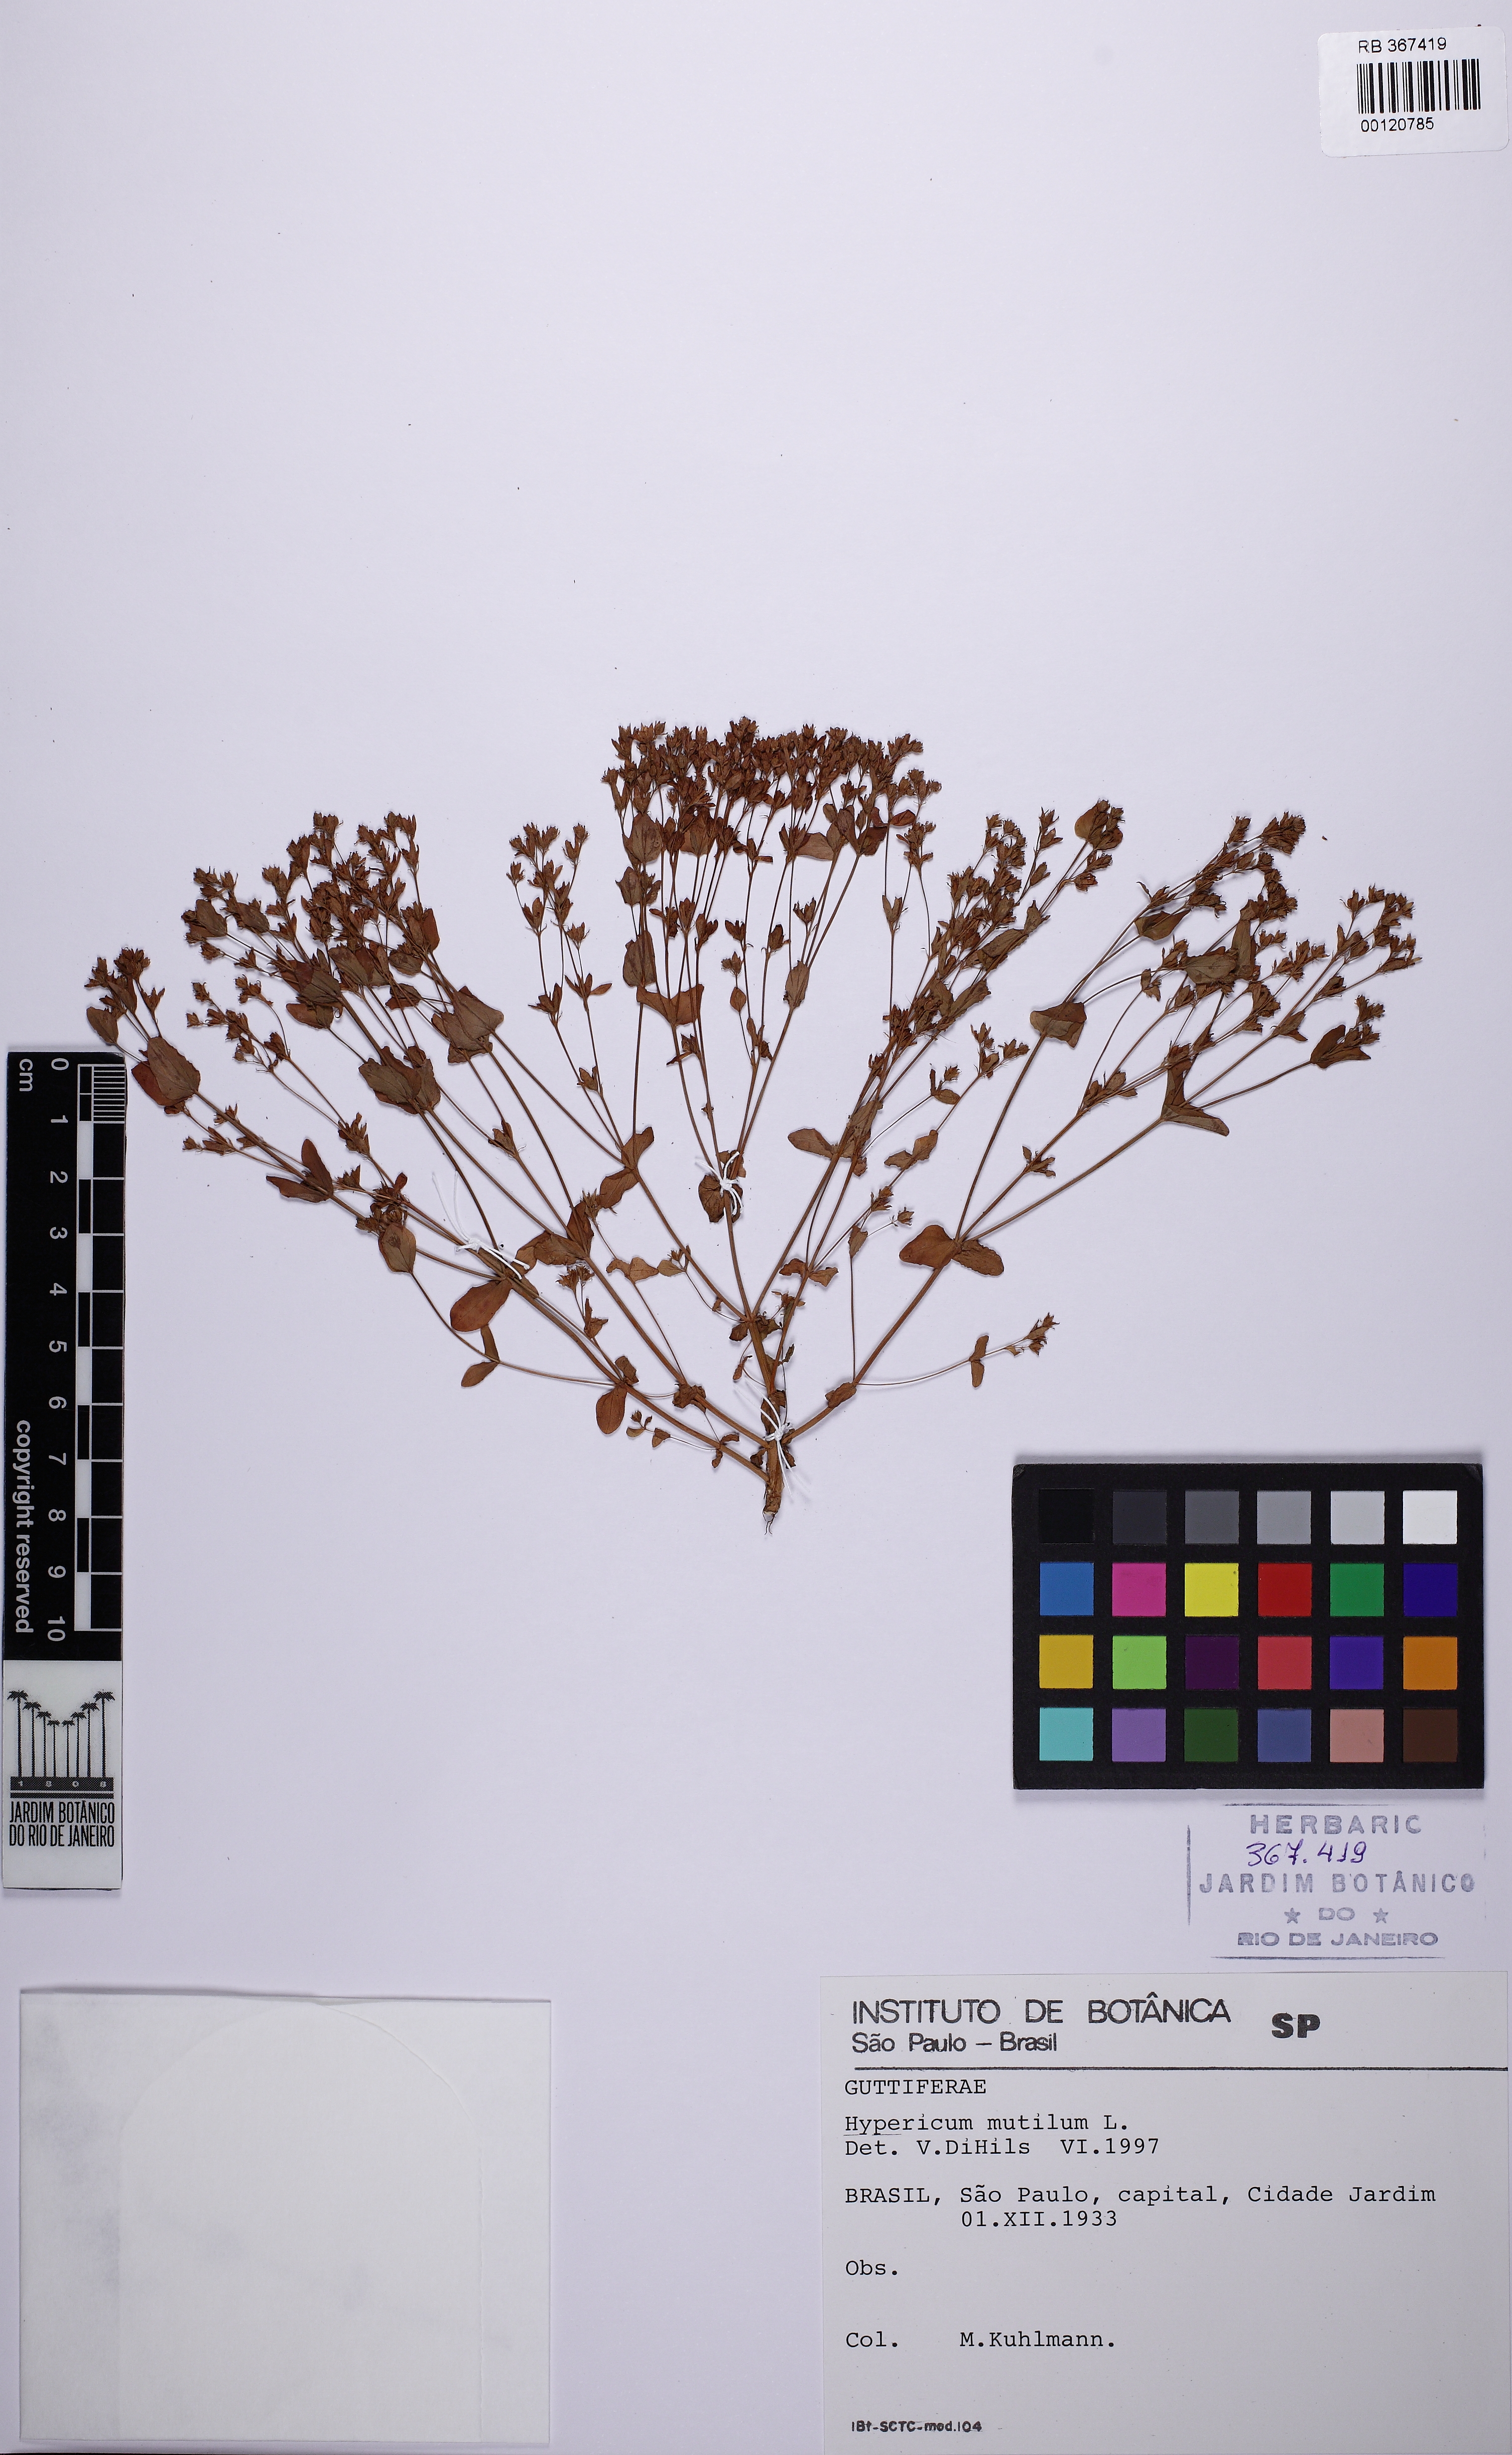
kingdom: Plantae
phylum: Tracheophyta
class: Magnoliopsida
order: Malpighiales
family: Hypericaceae
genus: Hypericum
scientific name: Hypericum mutilum
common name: Dwarf st. john's-wort
